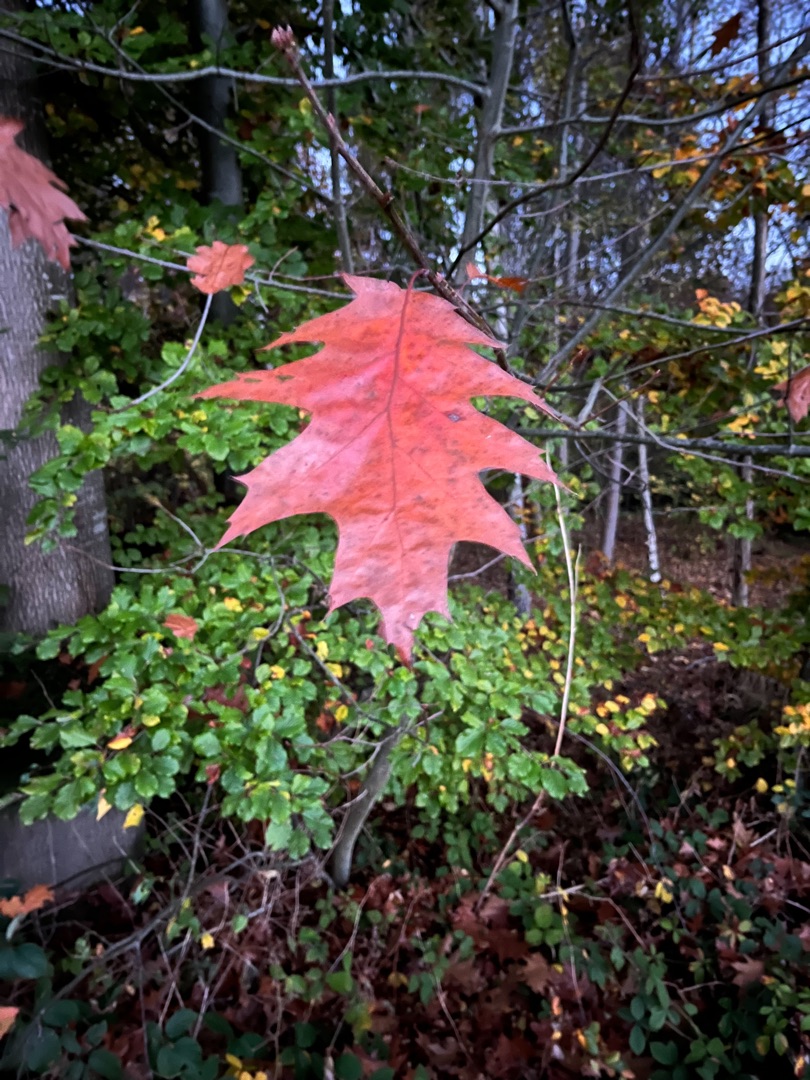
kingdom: Plantae
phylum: Tracheophyta
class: Magnoliopsida
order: Fagales
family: Fagaceae
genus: Quercus
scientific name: Quercus rubra
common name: Rød-eg
